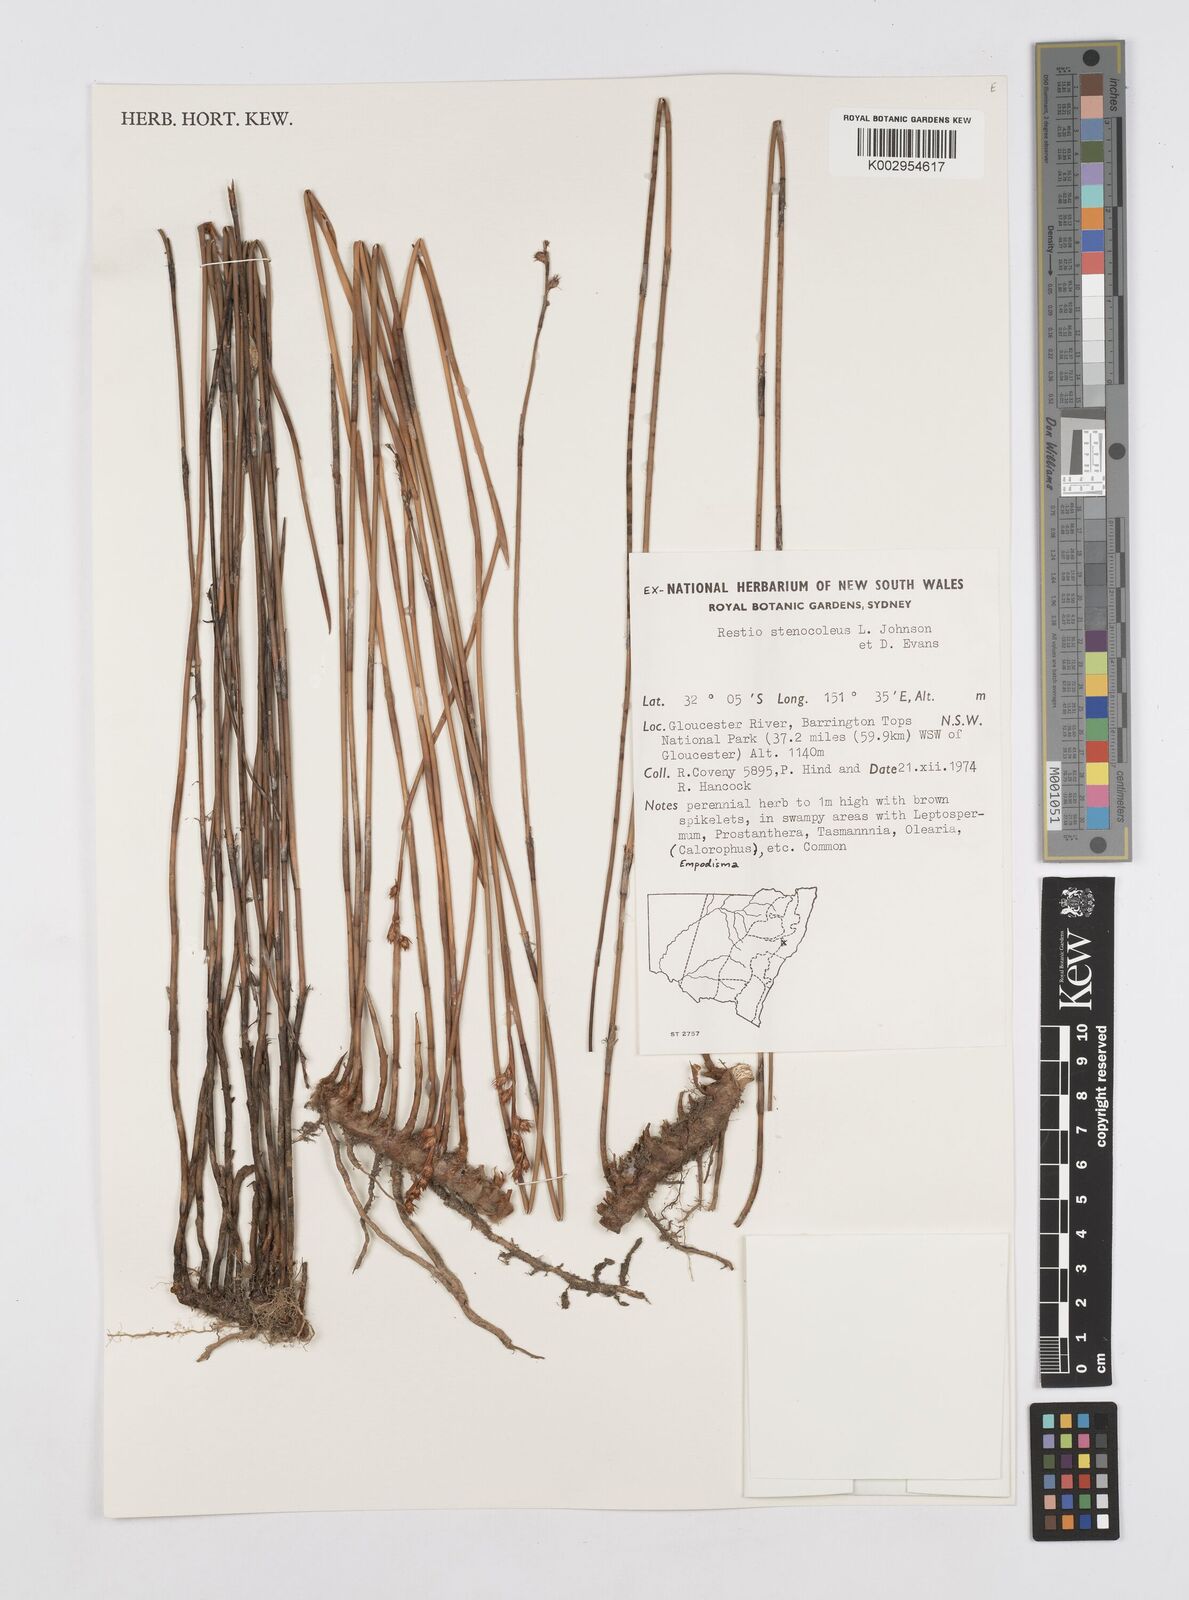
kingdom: Plantae
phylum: Tracheophyta
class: Liliopsida
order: Poales
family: Restionaceae
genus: Baloskion
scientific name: Baloskion stenocoleum
